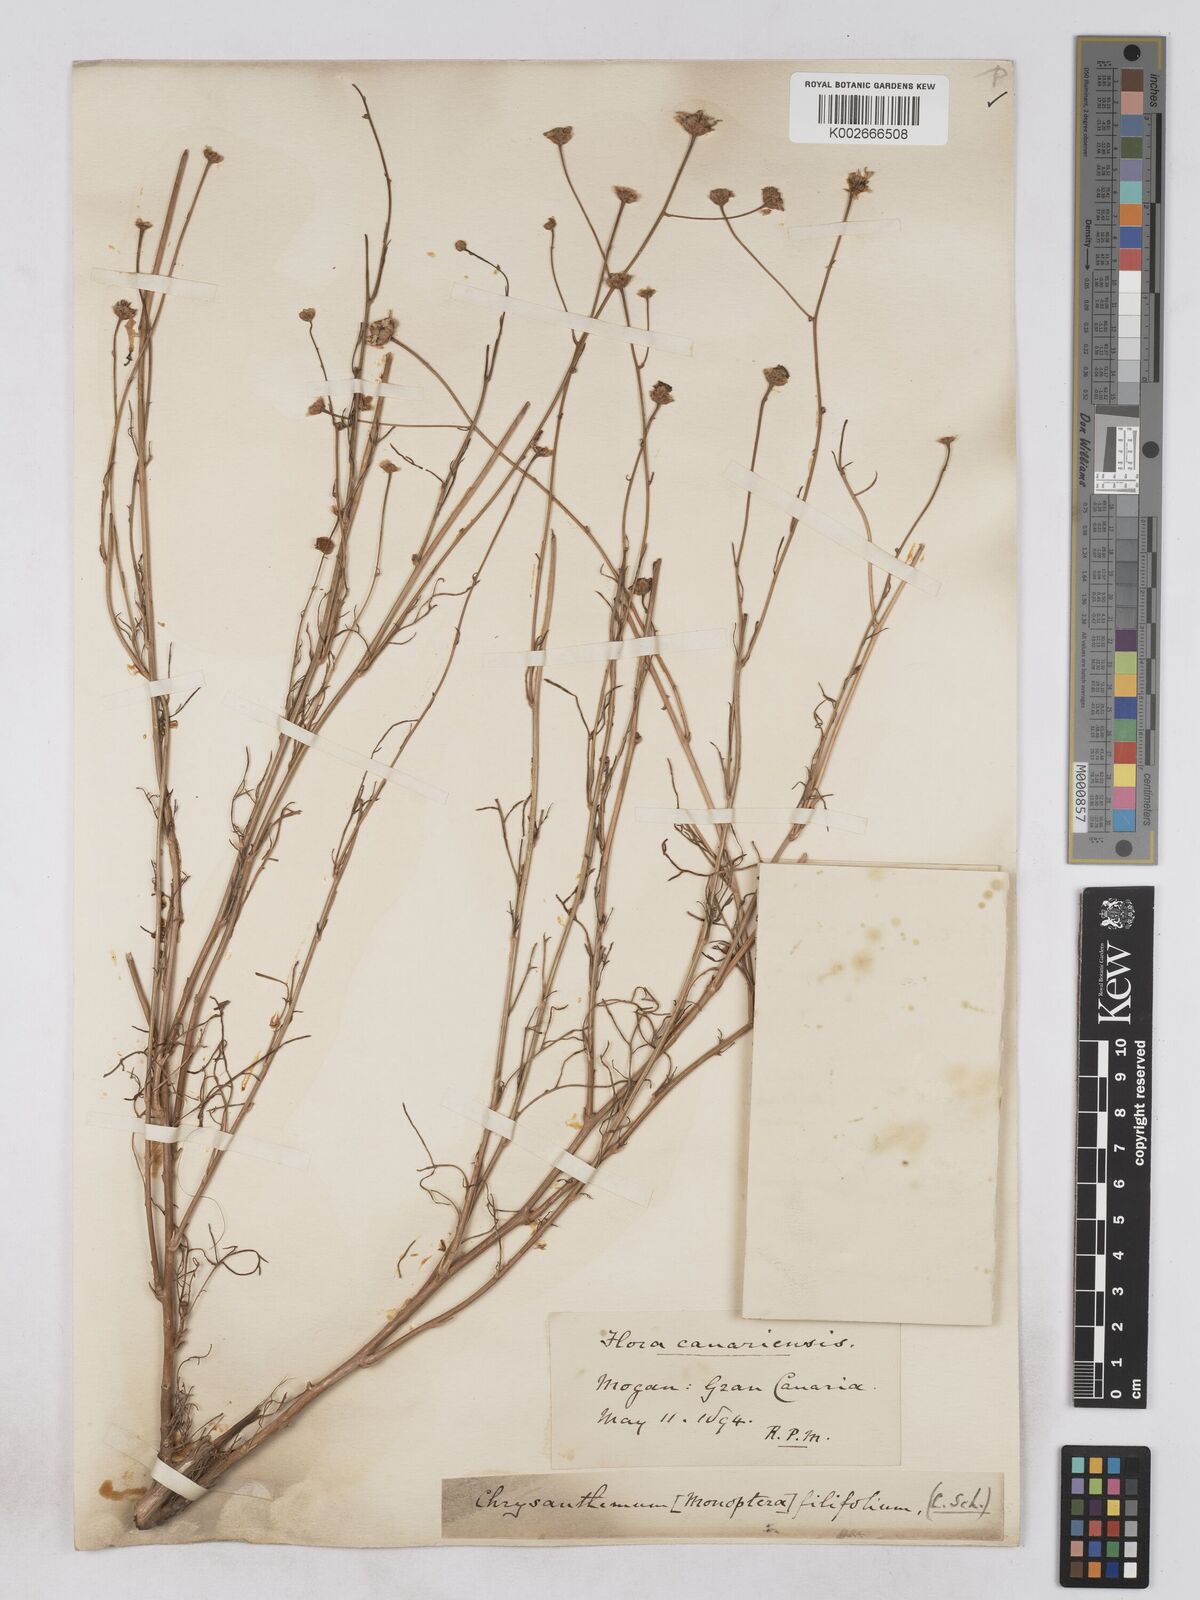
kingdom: Plantae
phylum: Tracheophyta
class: Magnoliopsida
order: Asterales
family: Asteraceae
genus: Argyranthemum
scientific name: Argyranthemum filifolium
